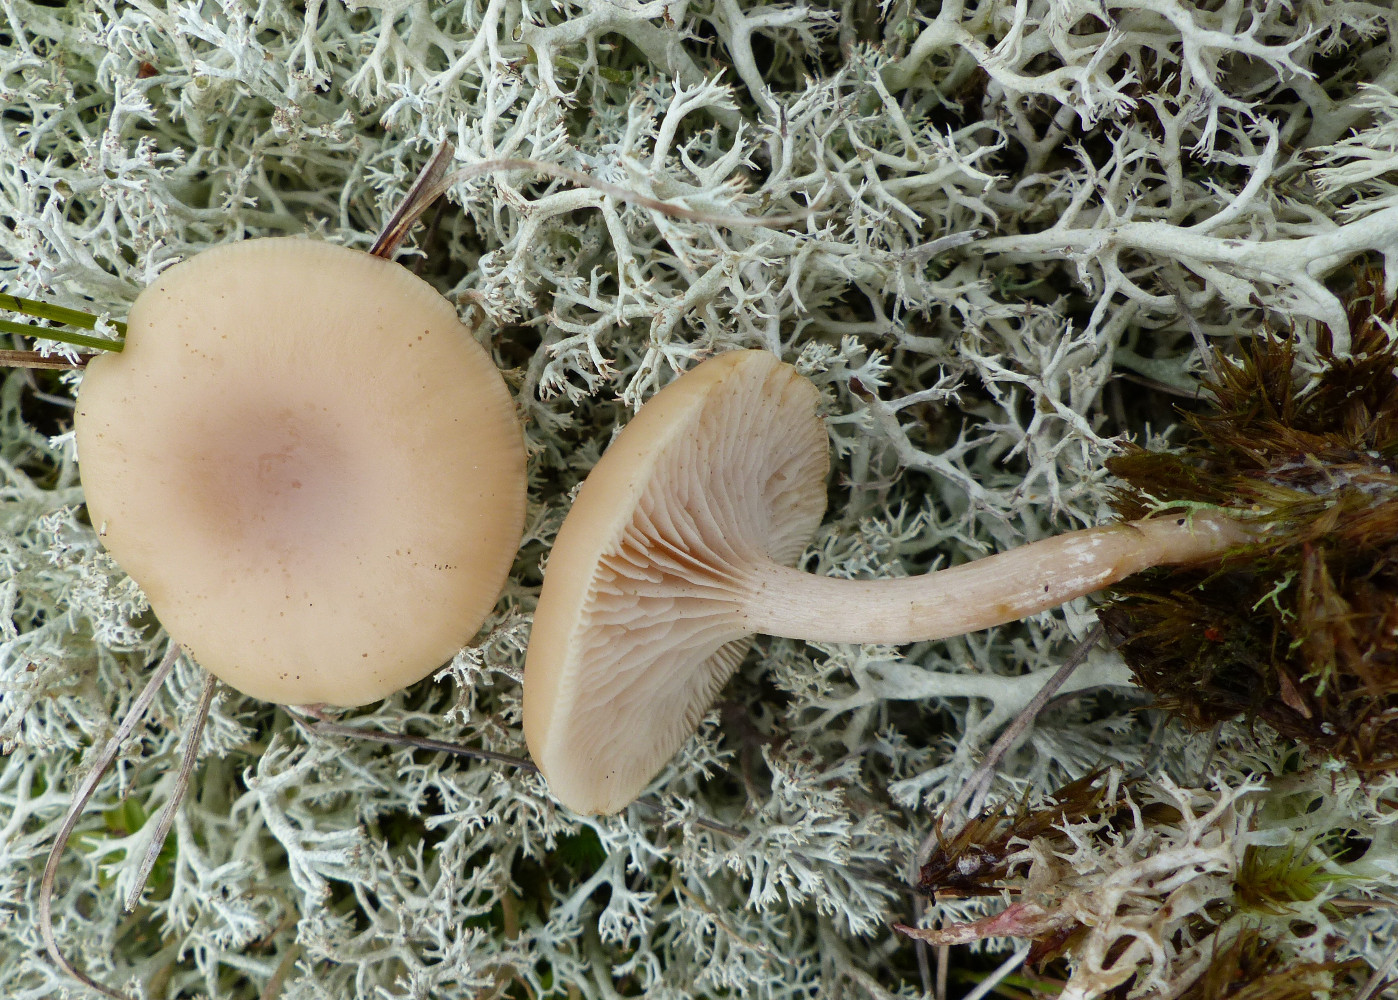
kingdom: Fungi
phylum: Basidiomycota
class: Agaricomycetes
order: Agaricales
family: Tricholomataceae
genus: Clitocybe
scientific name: Clitocybe
